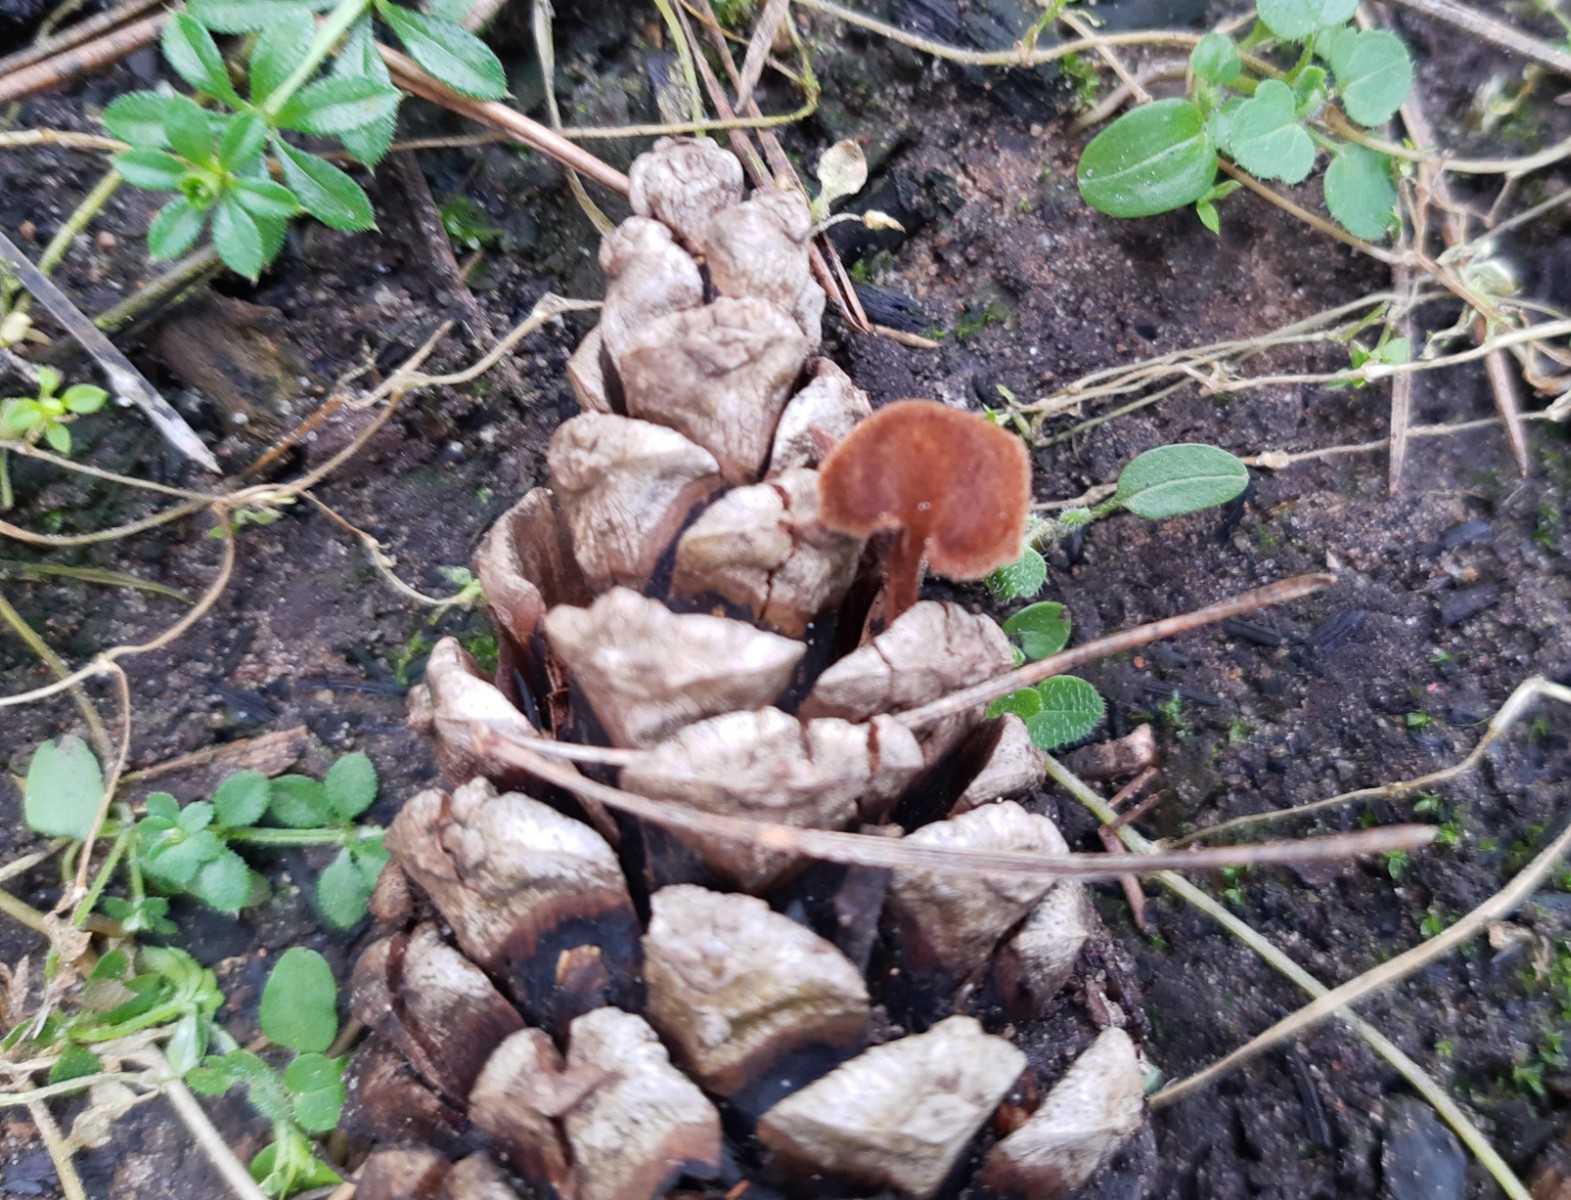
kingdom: Fungi
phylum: Basidiomycota
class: Agaricomycetes
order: Russulales
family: Auriscalpiaceae
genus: Auriscalpium
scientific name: Auriscalpium vulgare
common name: koglepigsvamp
